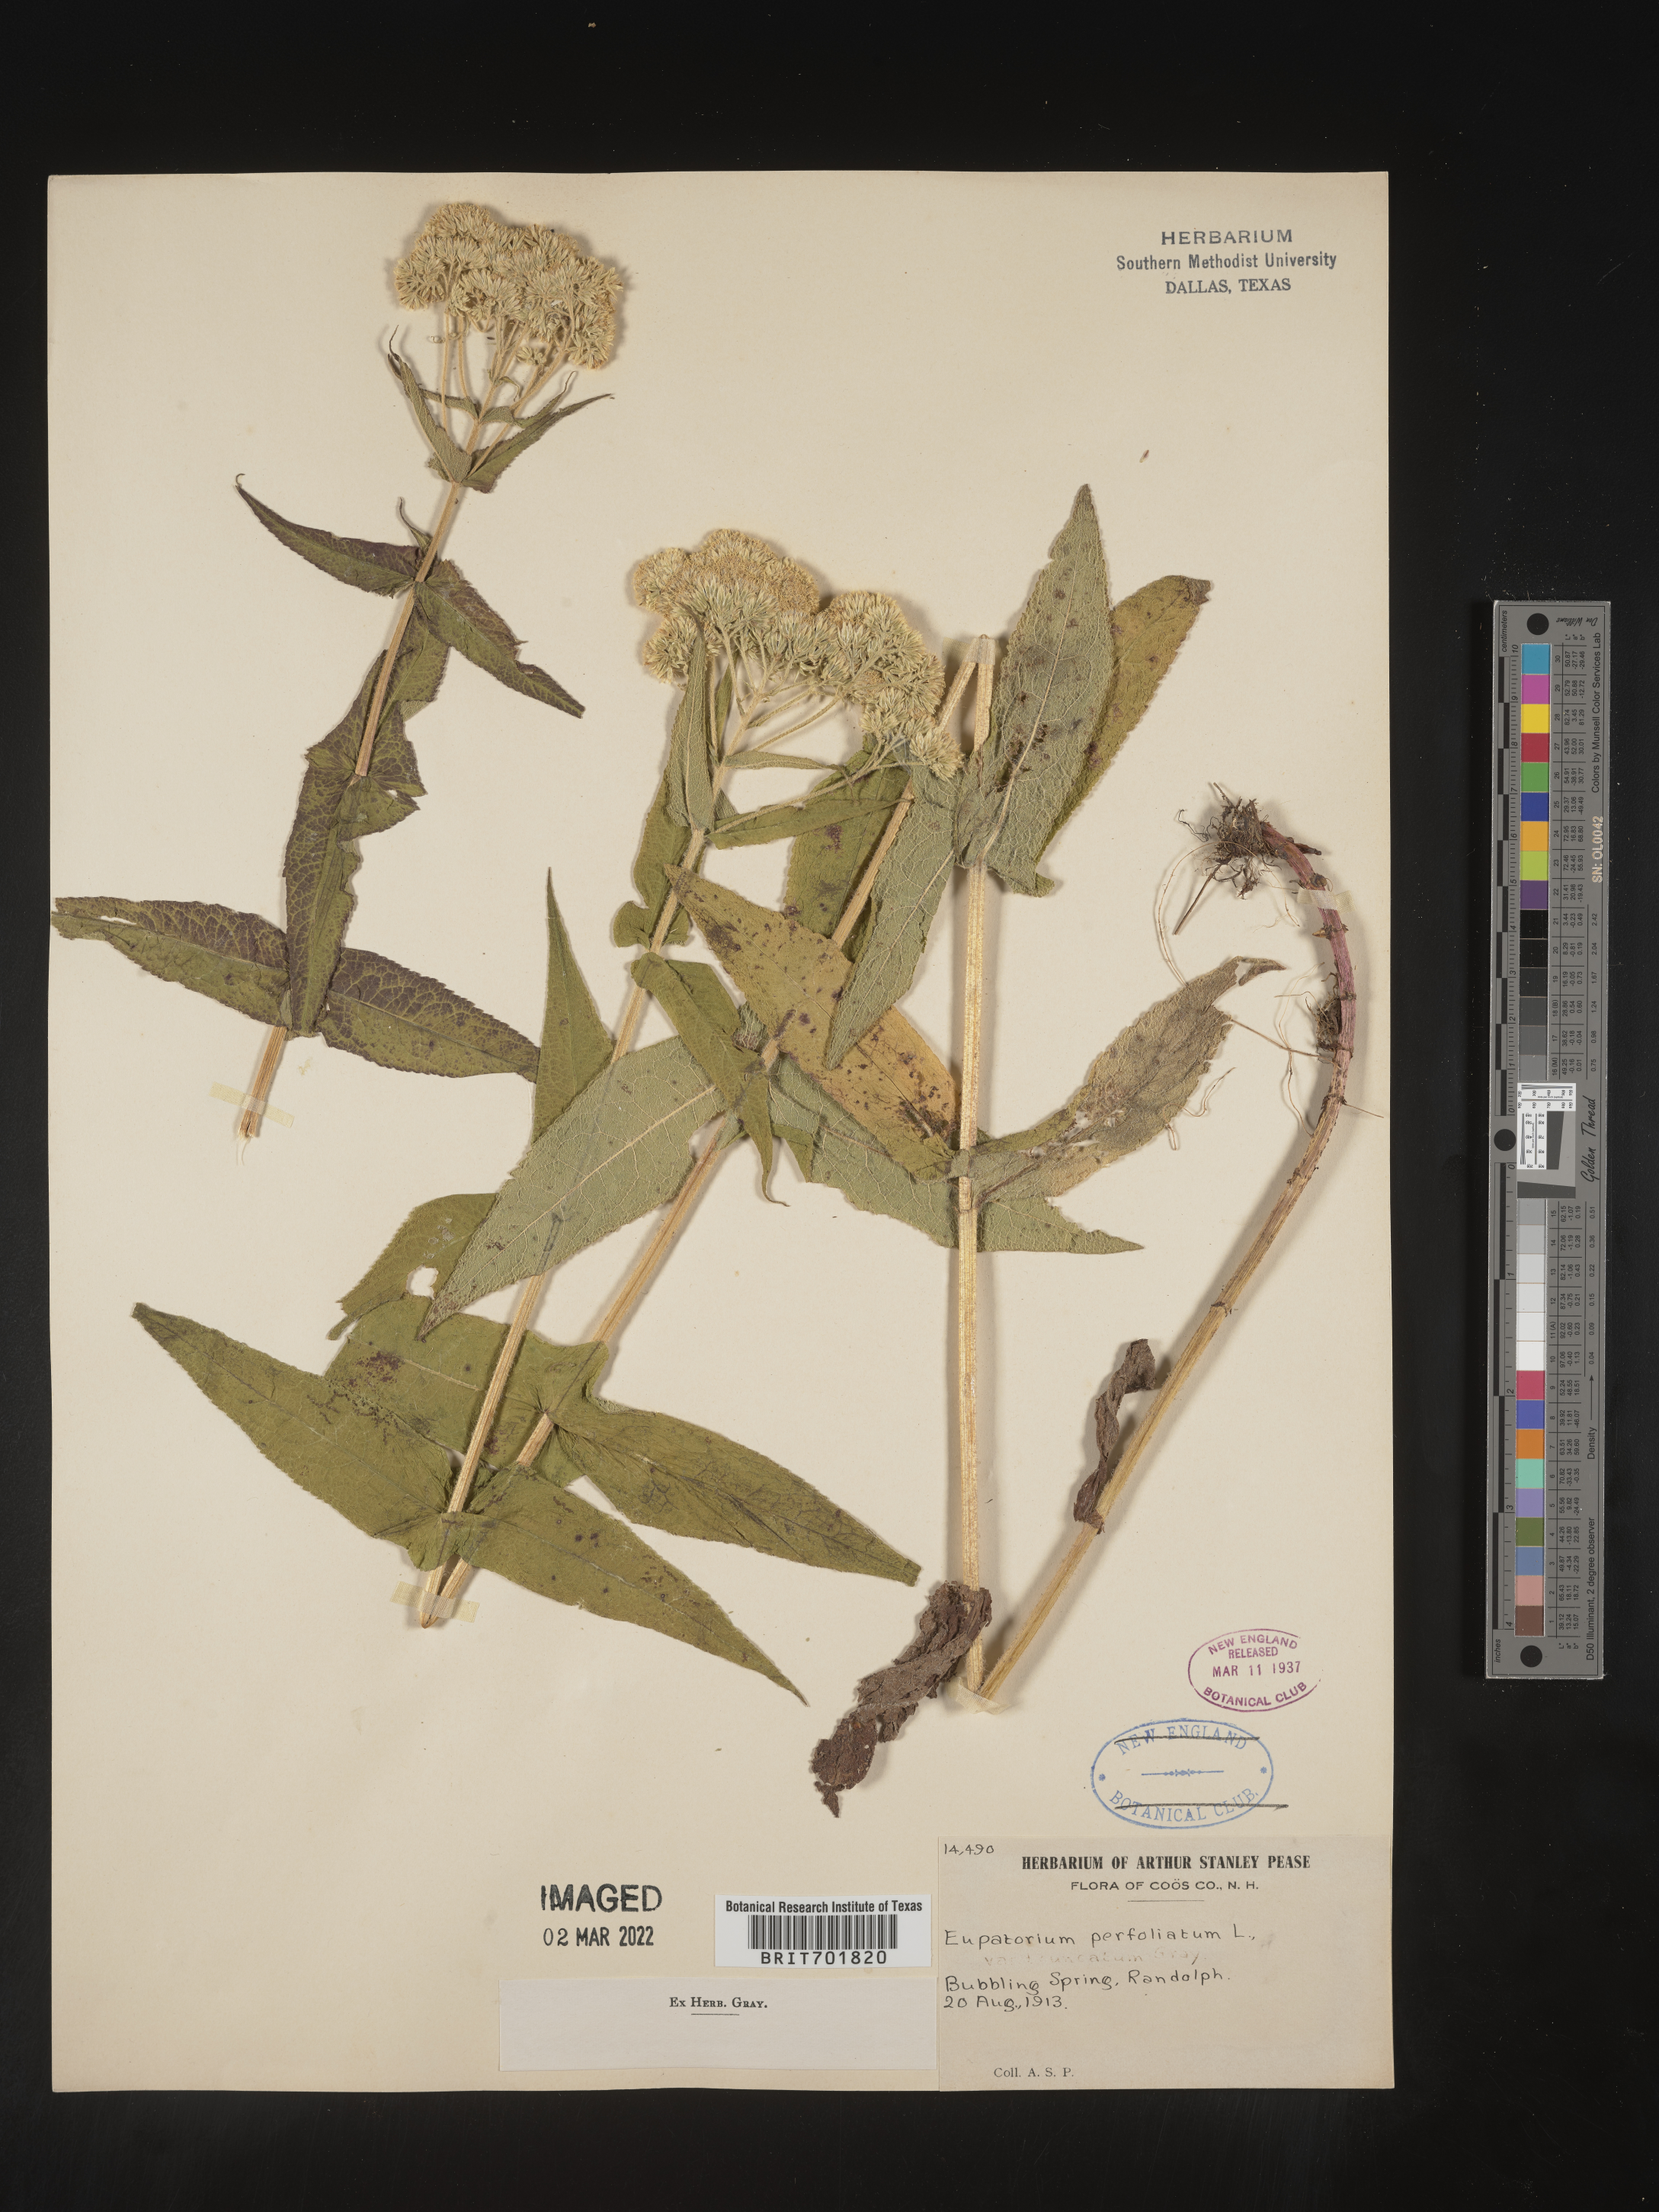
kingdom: Plantae
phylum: Tracheophyta
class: Magnoliopsida
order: Asterales
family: Asteraceae
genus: Eupatorium
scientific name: Eupatorium perfoliatum
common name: Boneset
